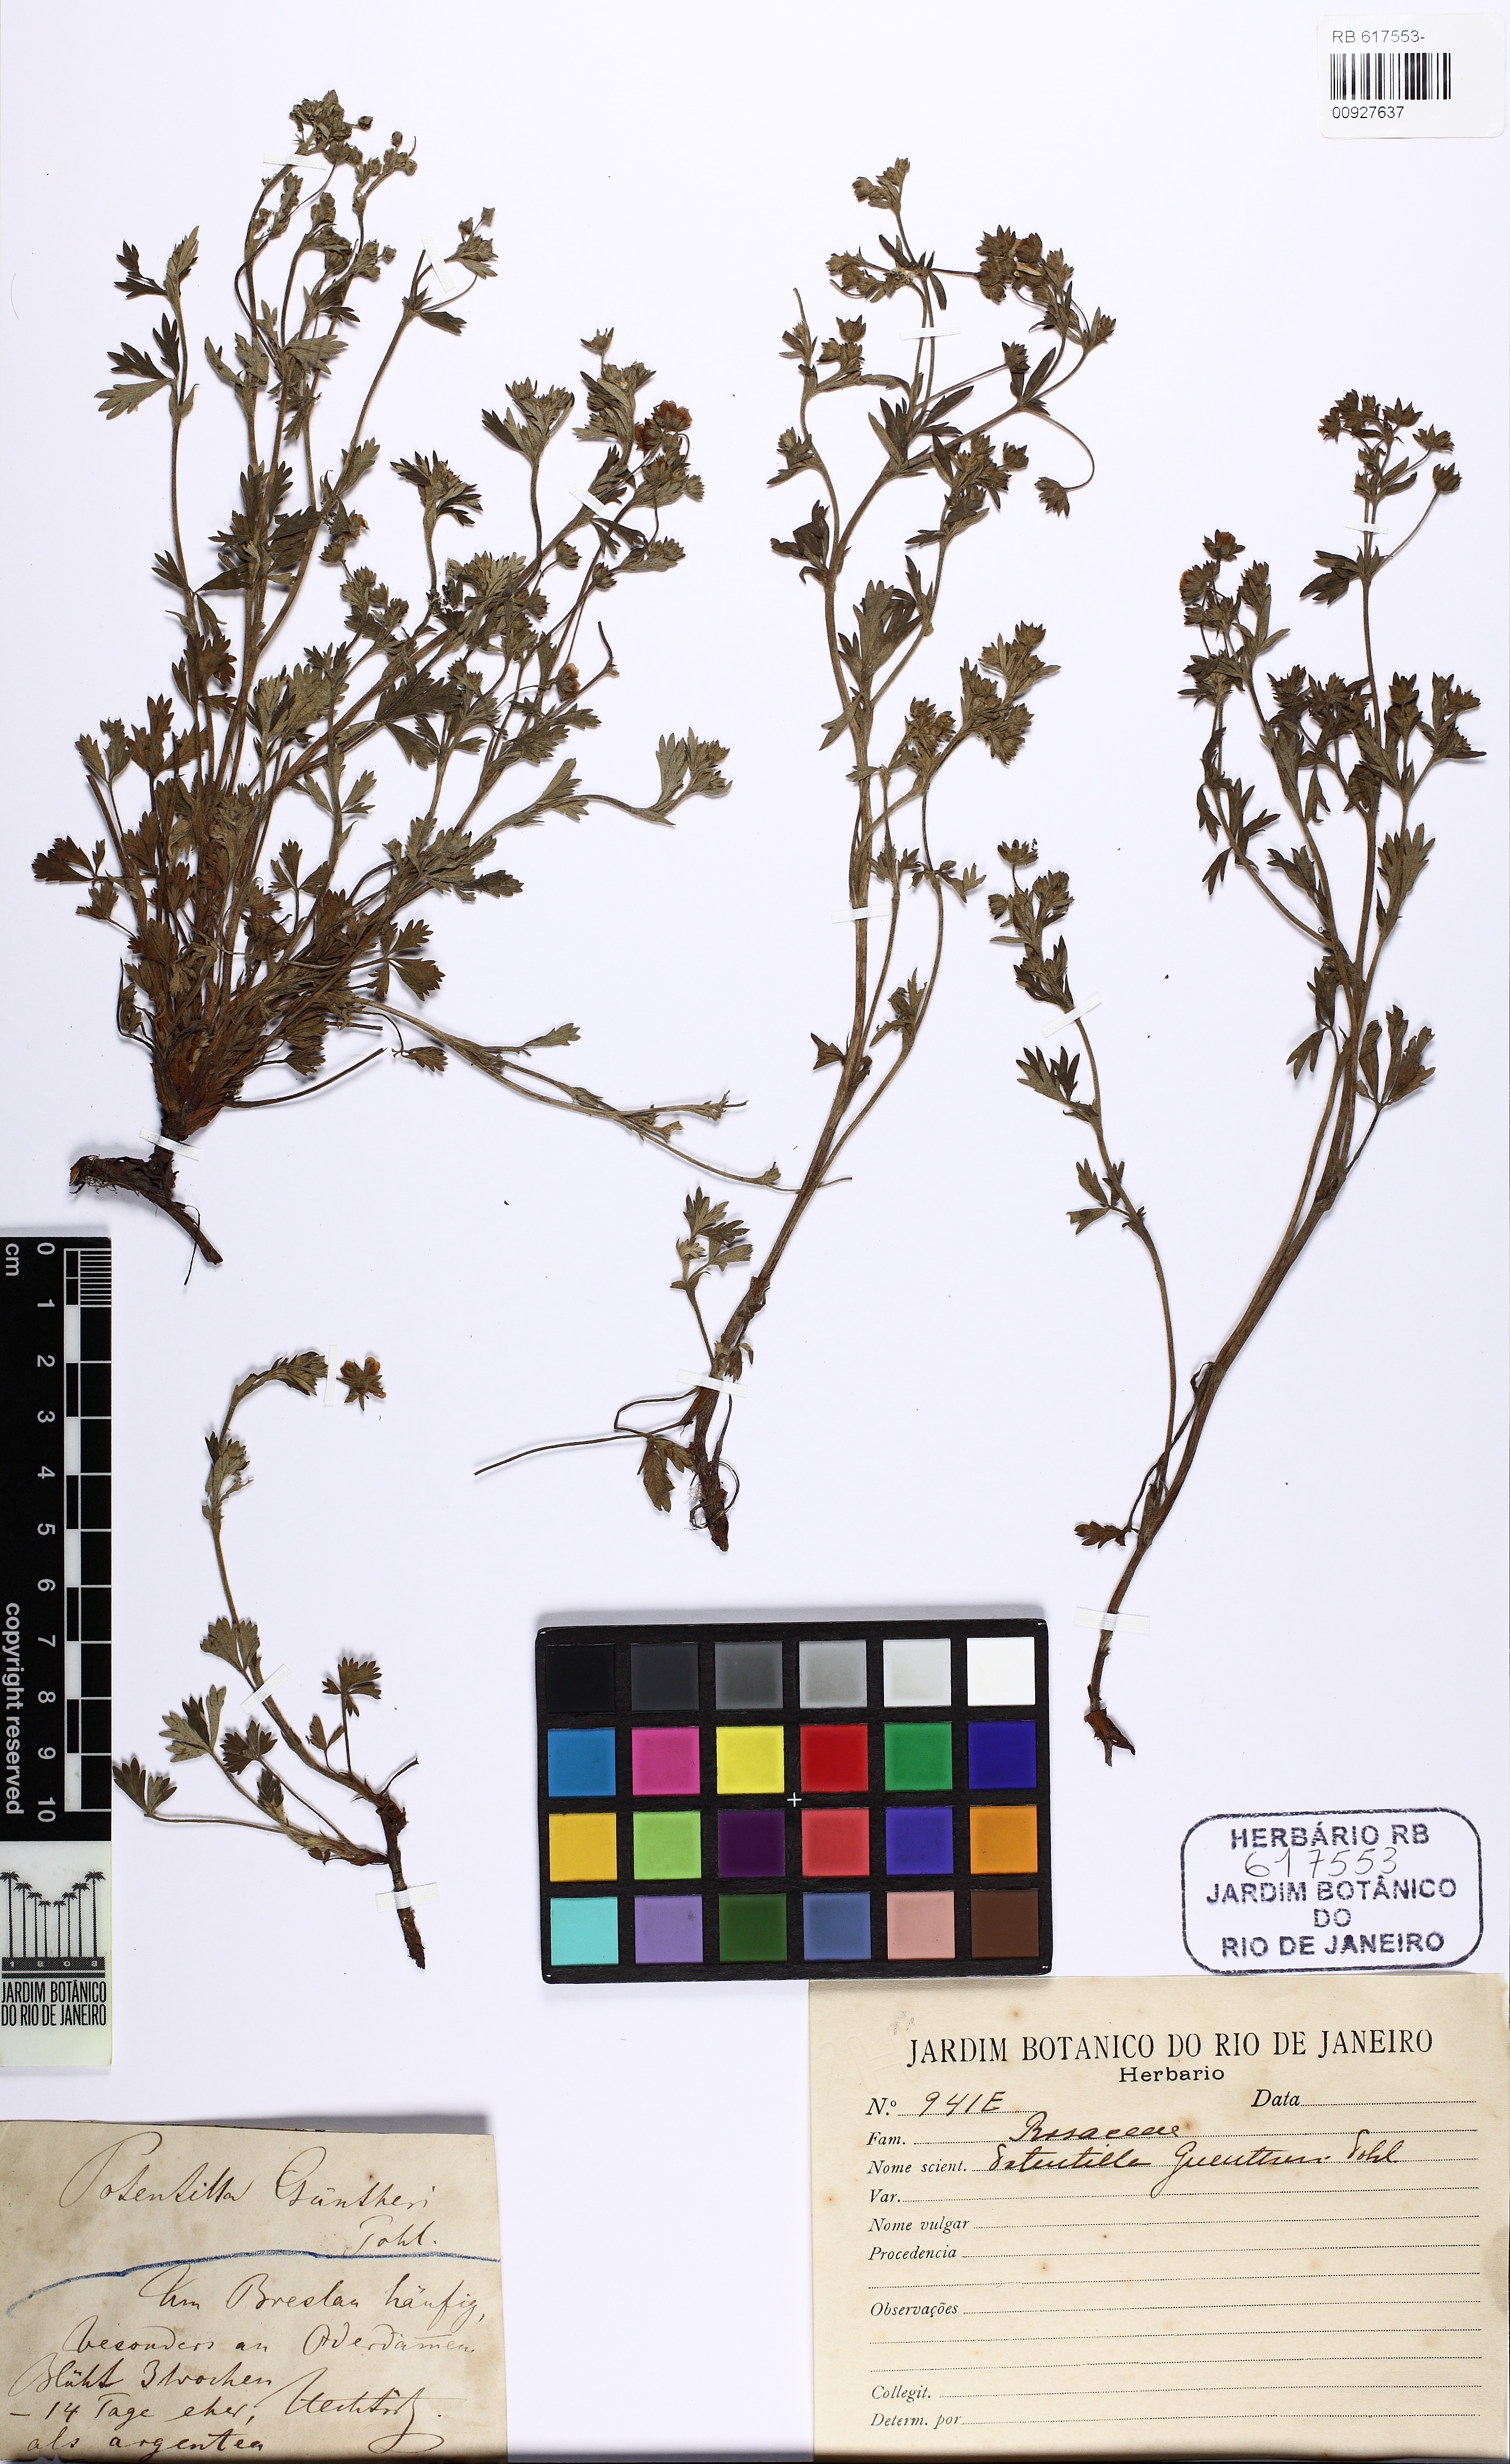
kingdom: Plantae
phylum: Tracheophyta
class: Magnoliopsida
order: Rosales
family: Rosaceae
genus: Potentilla
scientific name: Potentilla wimanniana
